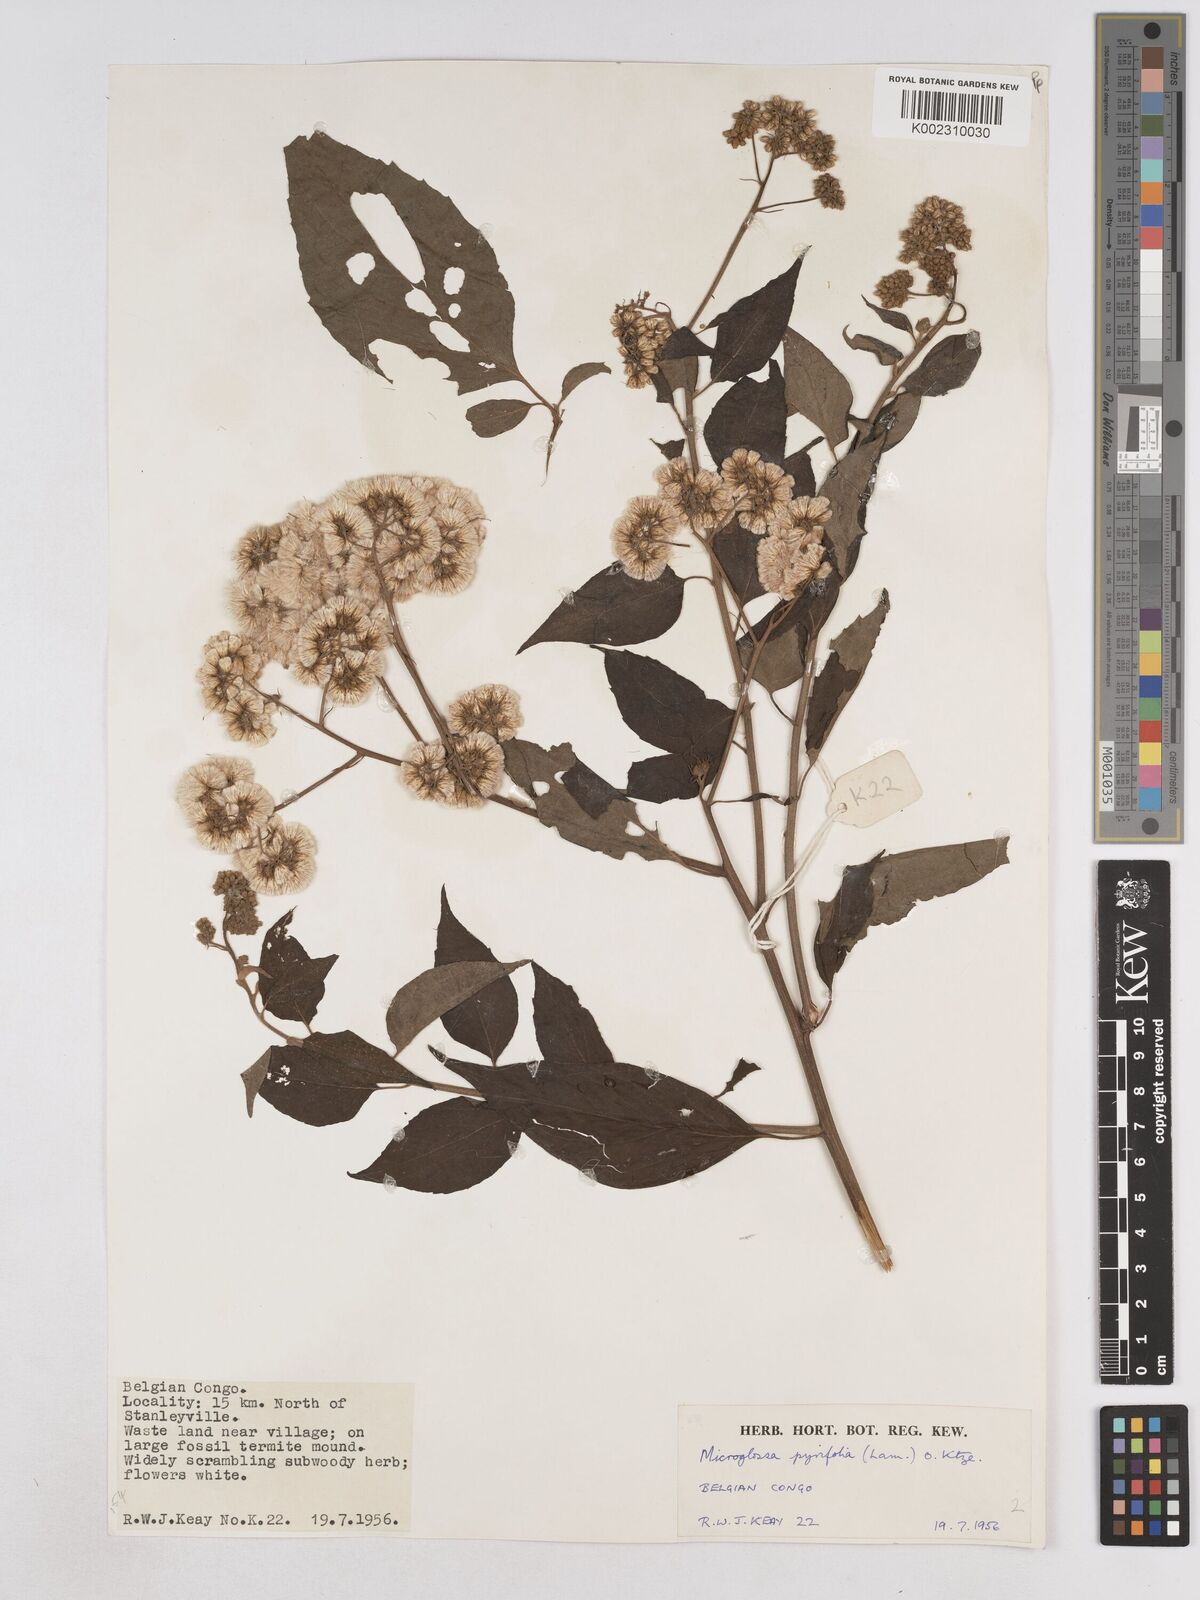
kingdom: Plantae
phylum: Tracheophyta
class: Magnoliopsida
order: Asterales
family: Asteraceae
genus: Microglossa
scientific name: Microglossa pyrifolia
